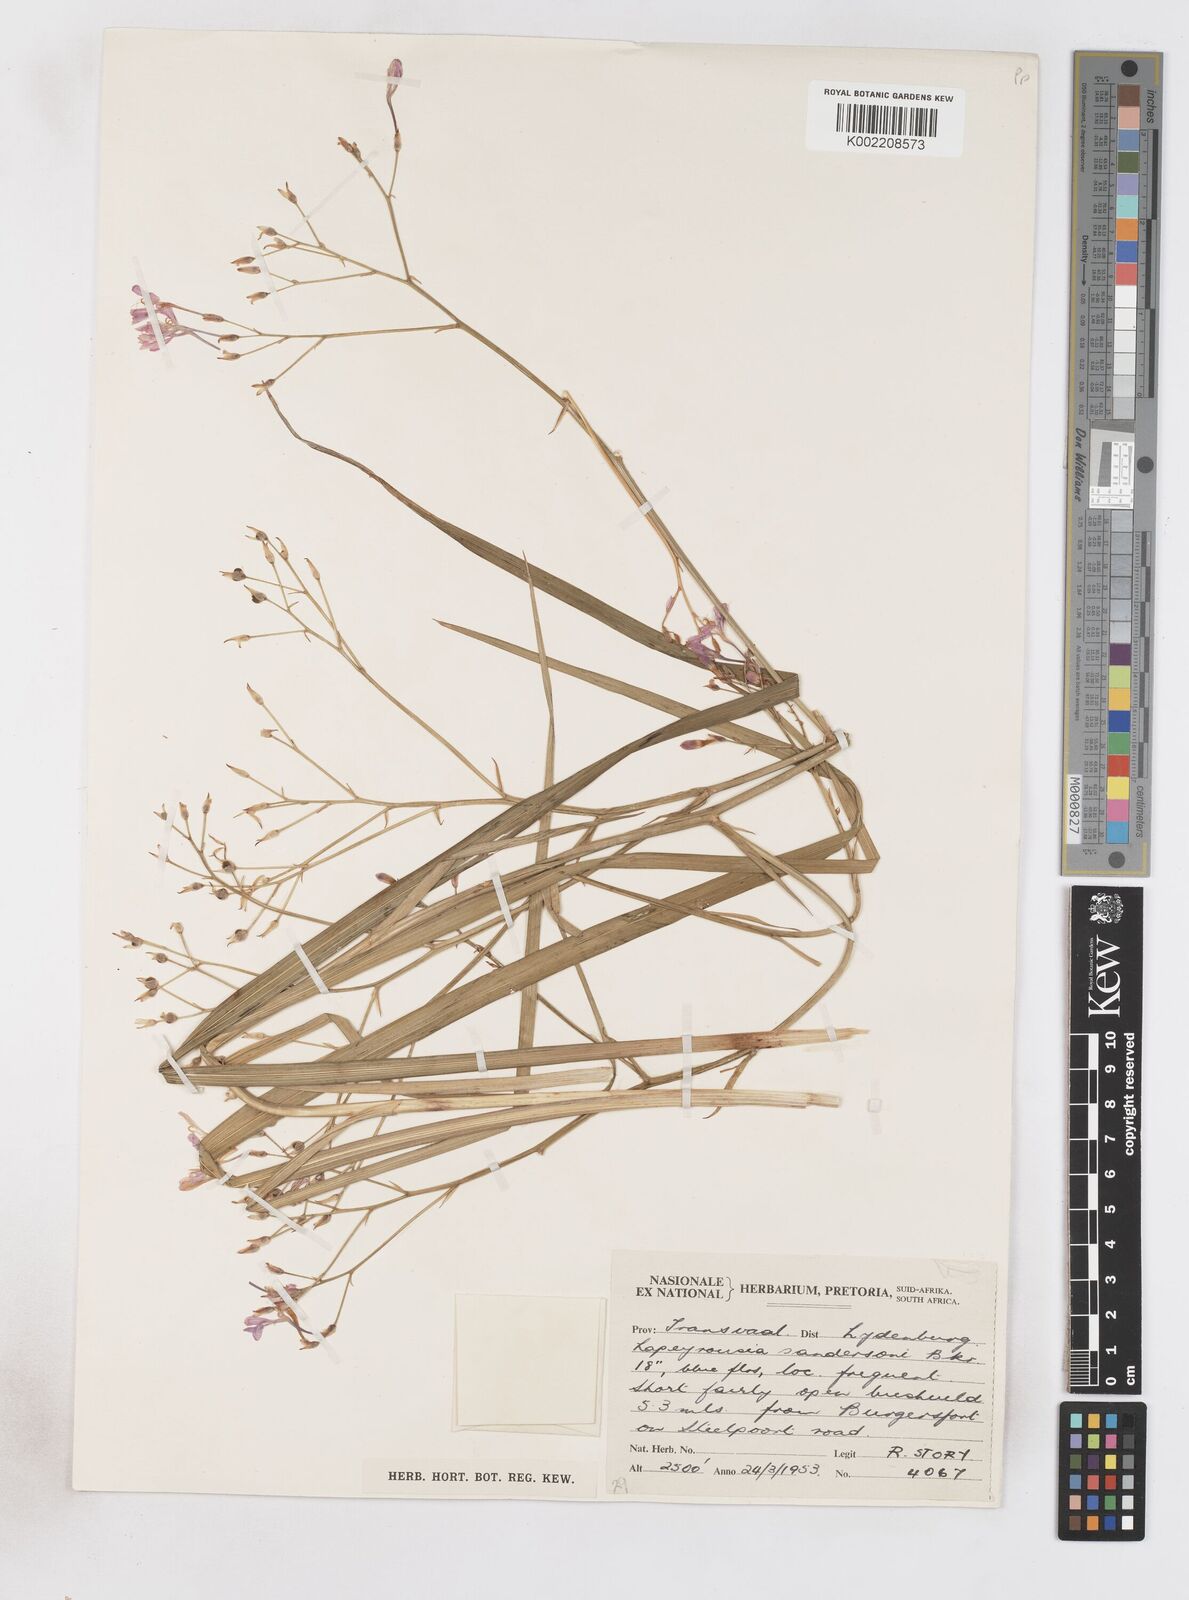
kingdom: Plantae
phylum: Tracheophyta
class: Liliopsida
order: Asparagales
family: Iridaceae
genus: Afrosolen
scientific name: Afrosolen sandersonii
